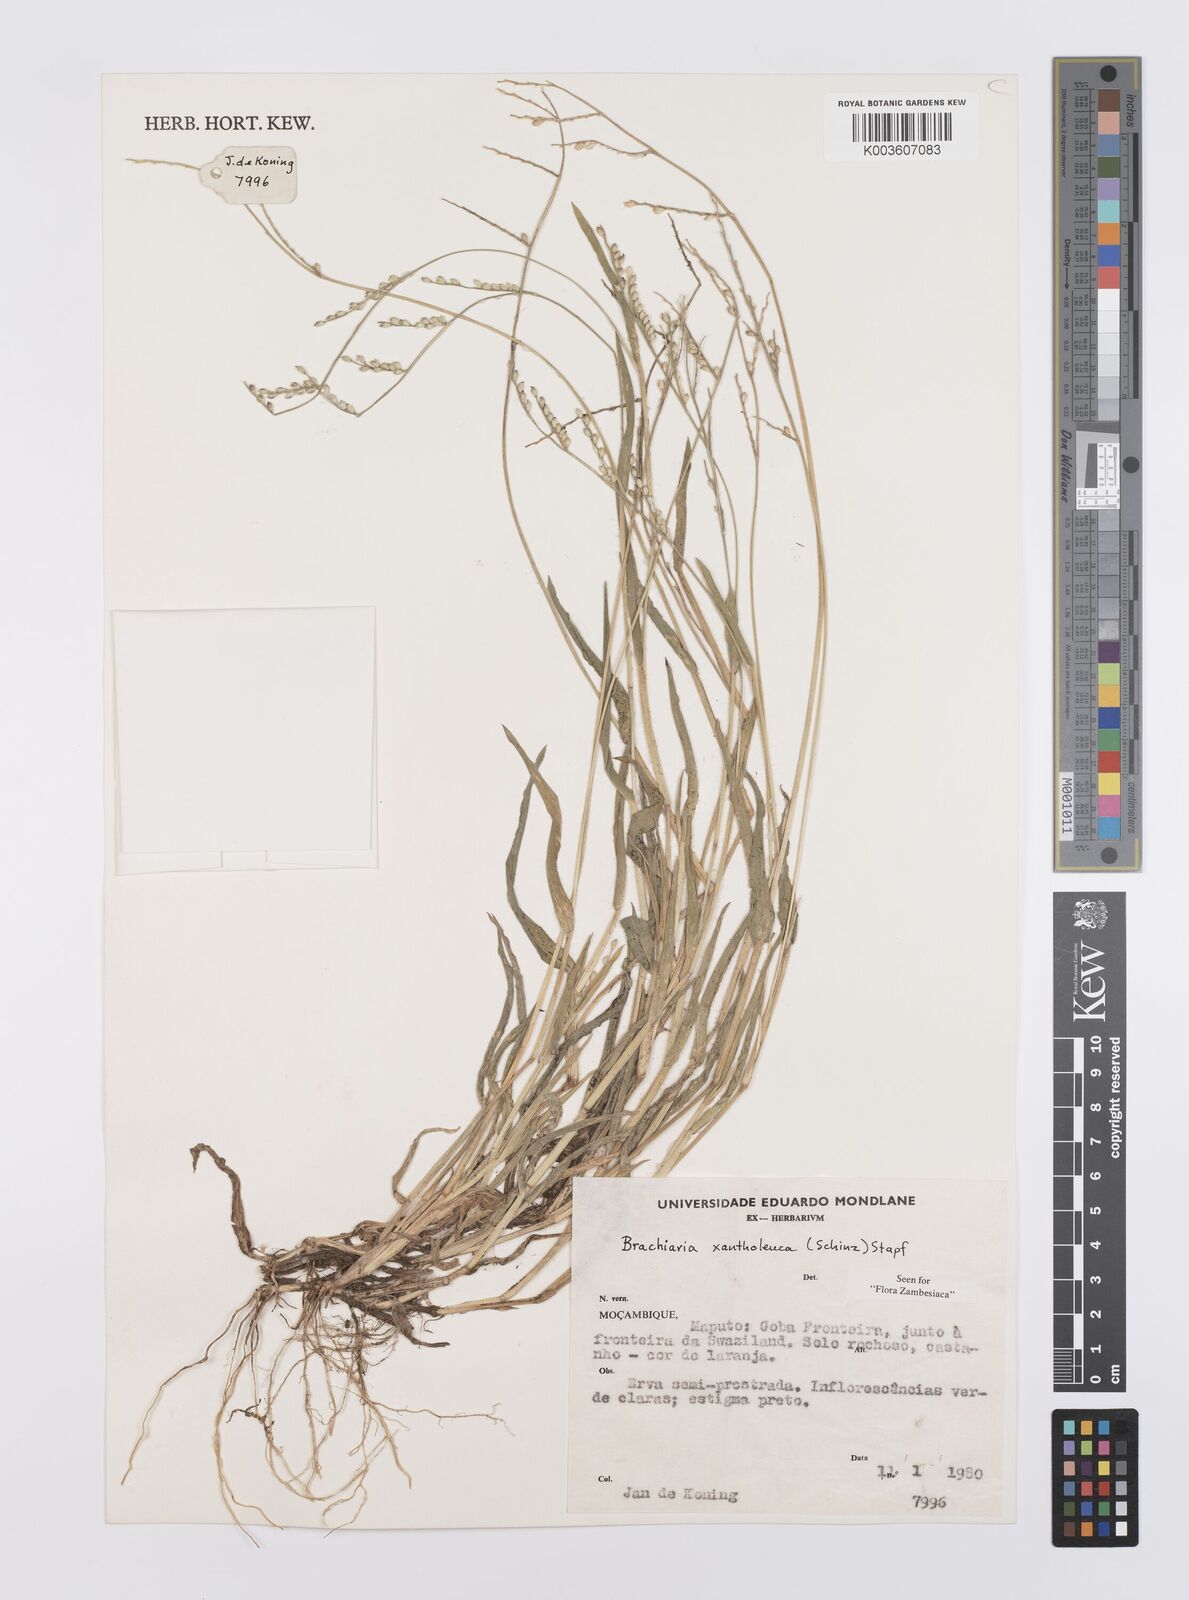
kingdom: Plantae
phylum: Tracheophyta
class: Liliopsida
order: Poales
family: Poaceae
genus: Urochloa
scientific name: Urochloa xantholeuca
